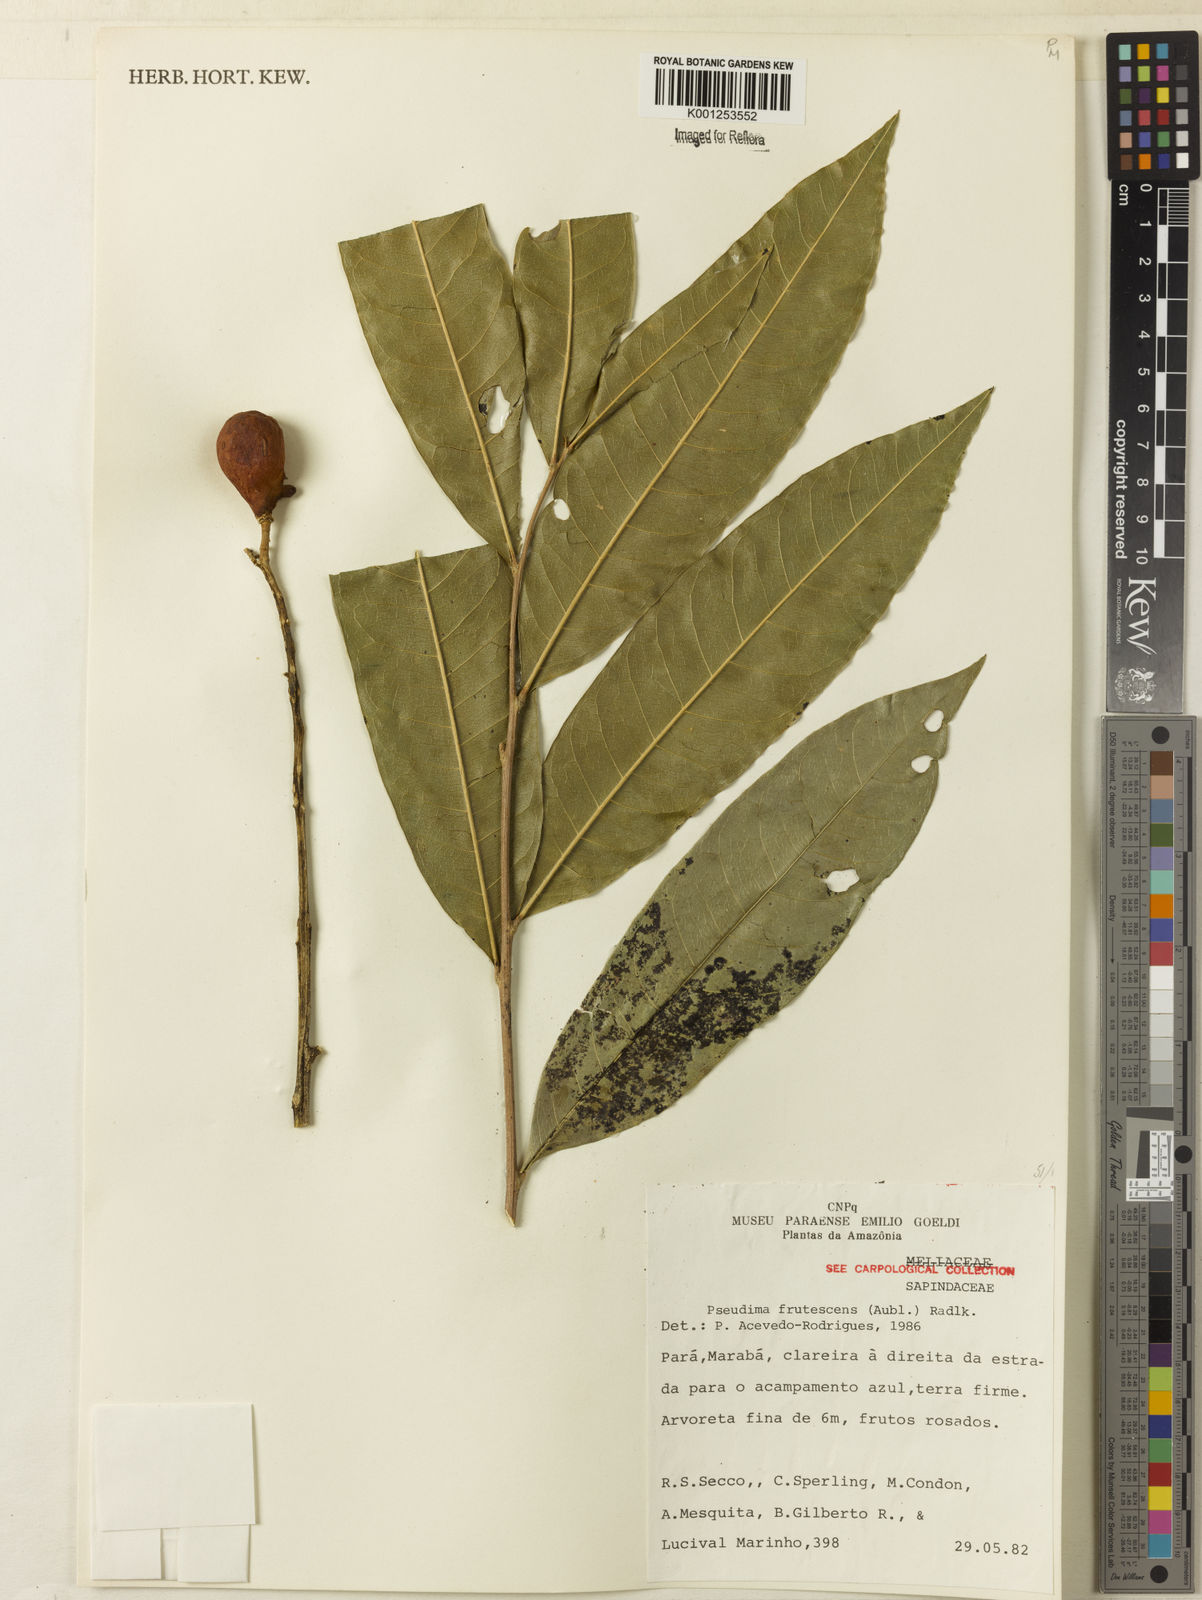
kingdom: Plantae
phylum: Tracheophyta
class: Magnoliopsida
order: Sapindales
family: Sapindaceae
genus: Pseudima
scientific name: Pseudima frutescens
